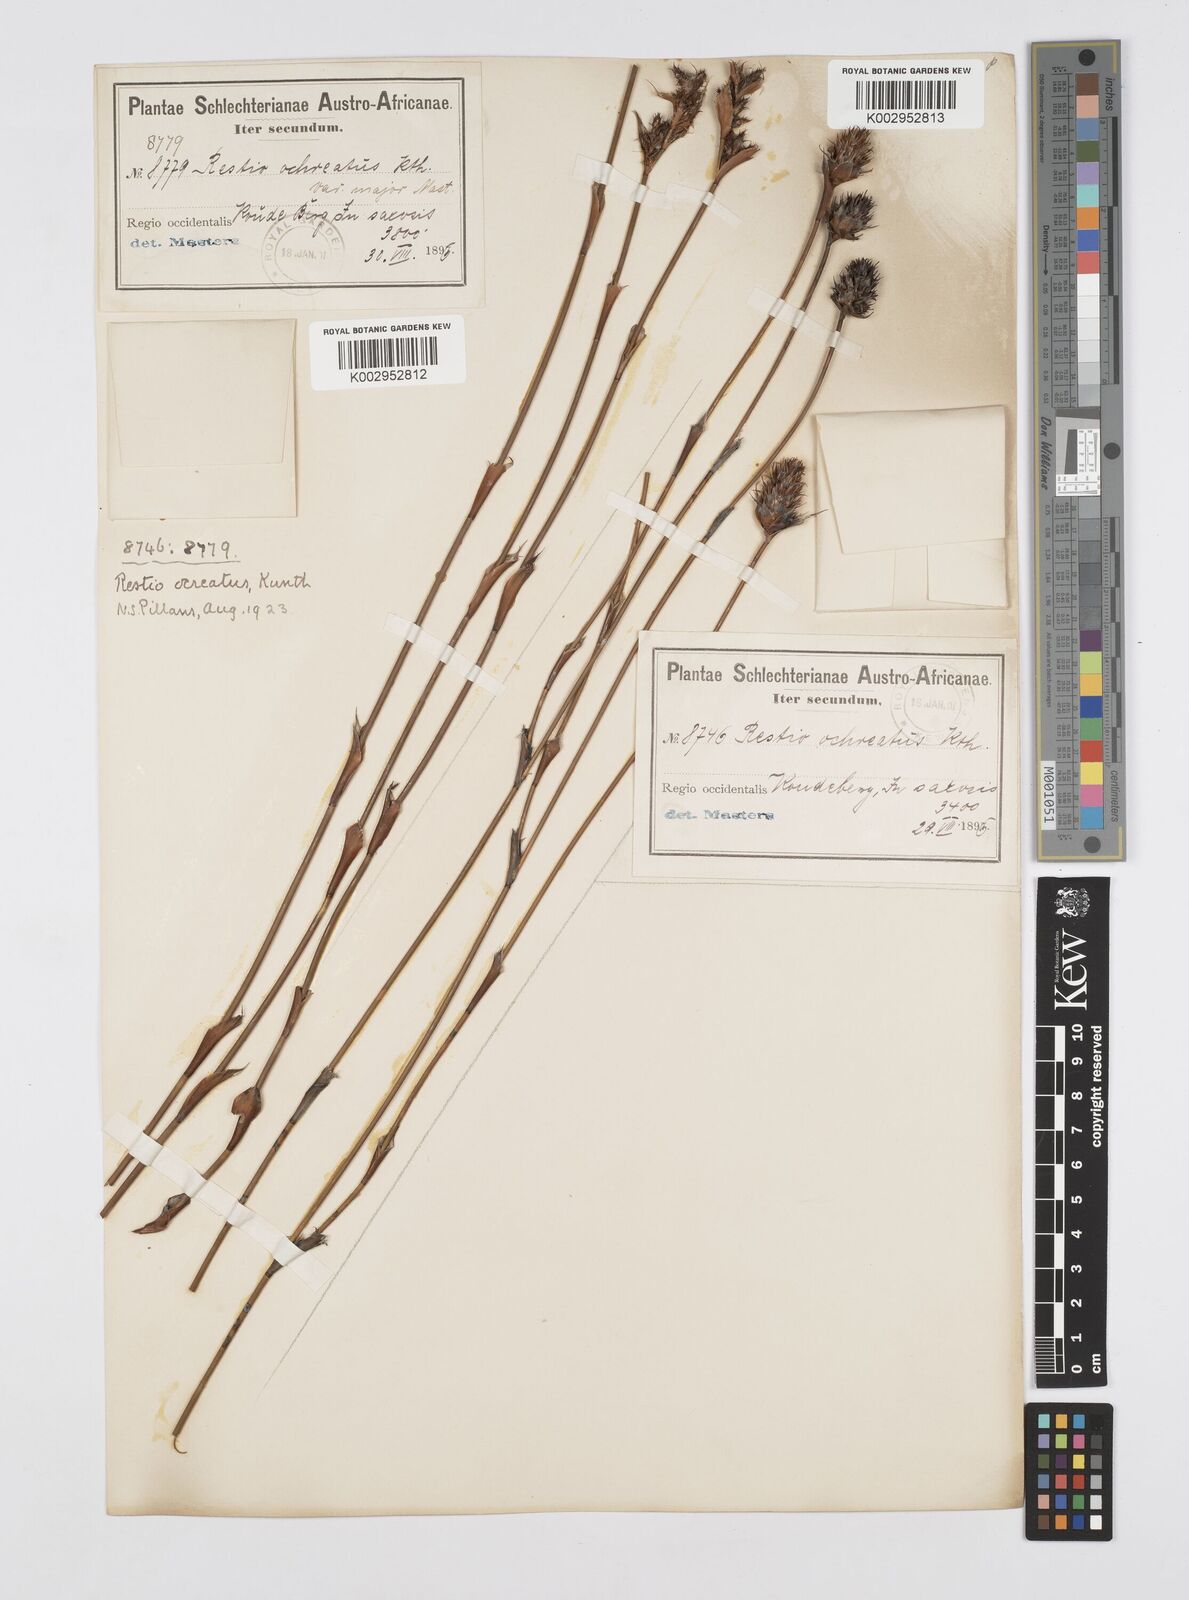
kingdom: Plantae
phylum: Tracheophyta
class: Liliopsida
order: Poales
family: Restionaceae
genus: Restio
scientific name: Restio ocreatus
